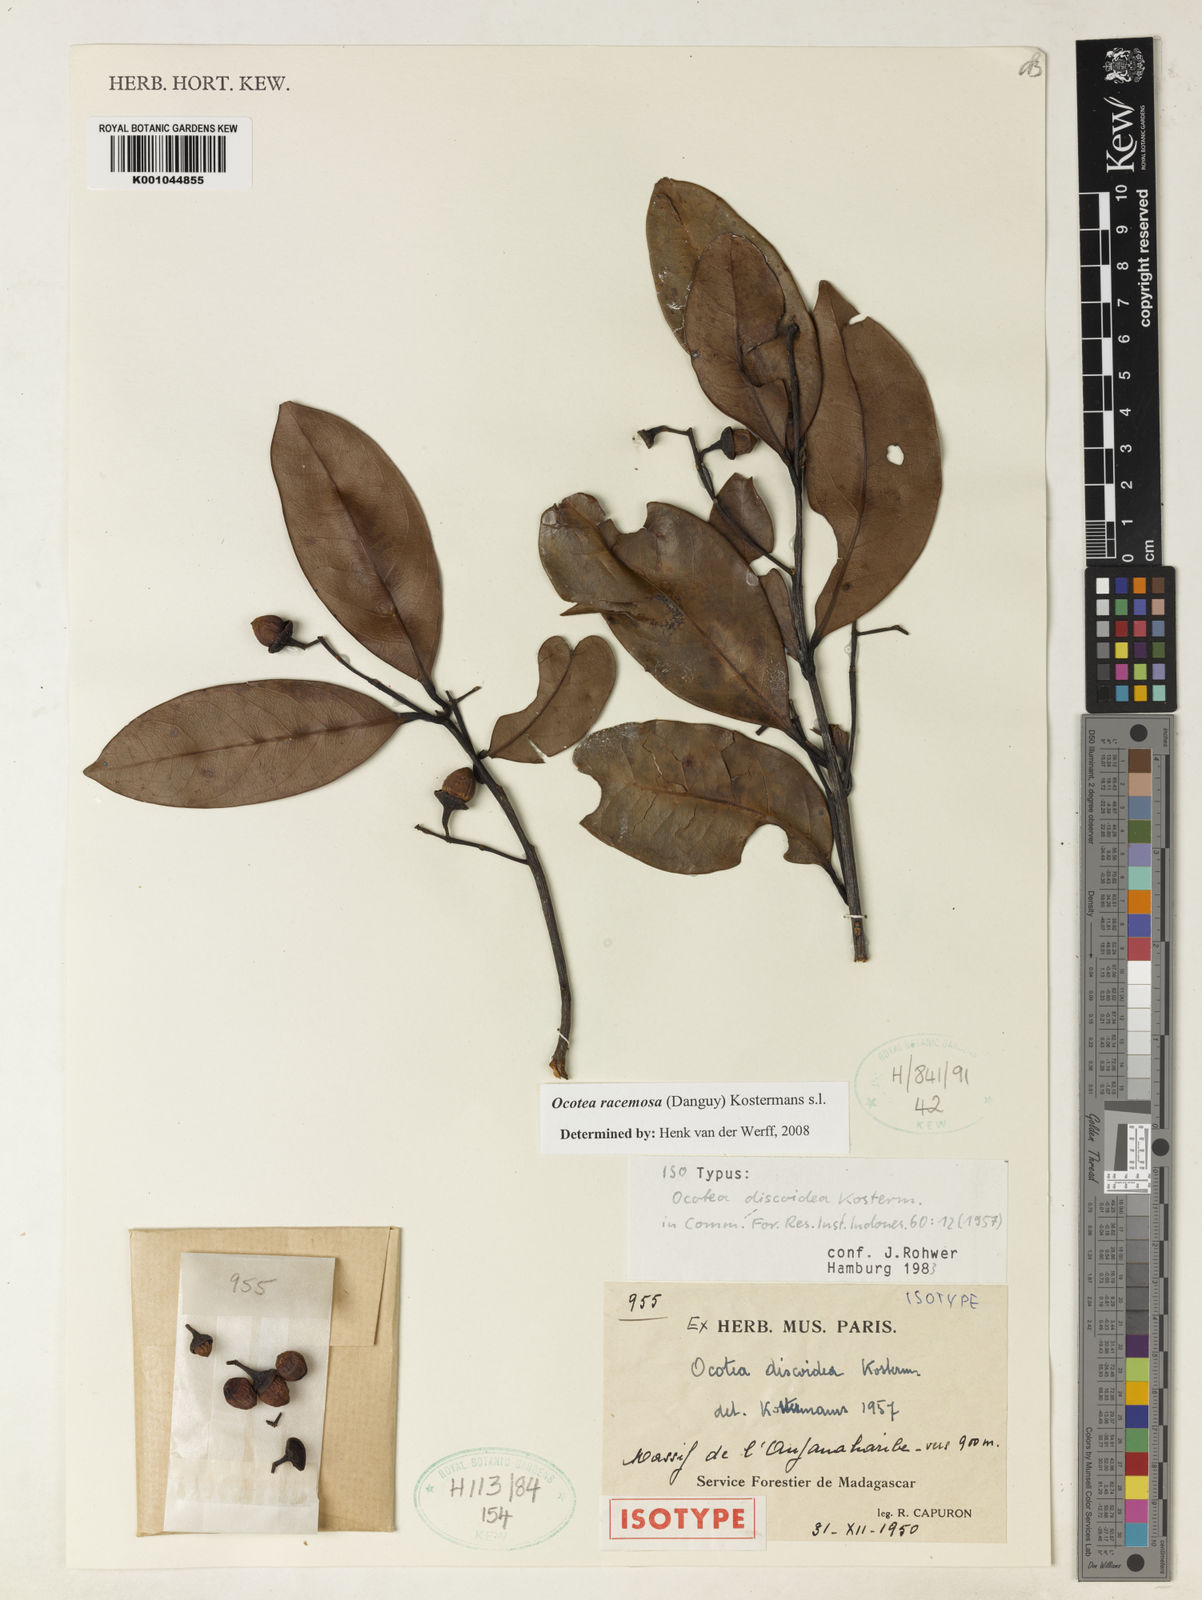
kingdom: Plantae
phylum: Tracheophyta
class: Magnoliopsida
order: Laurales
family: Lauraceae
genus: Mespilodaphne
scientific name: Mespilodaphne racemosa
